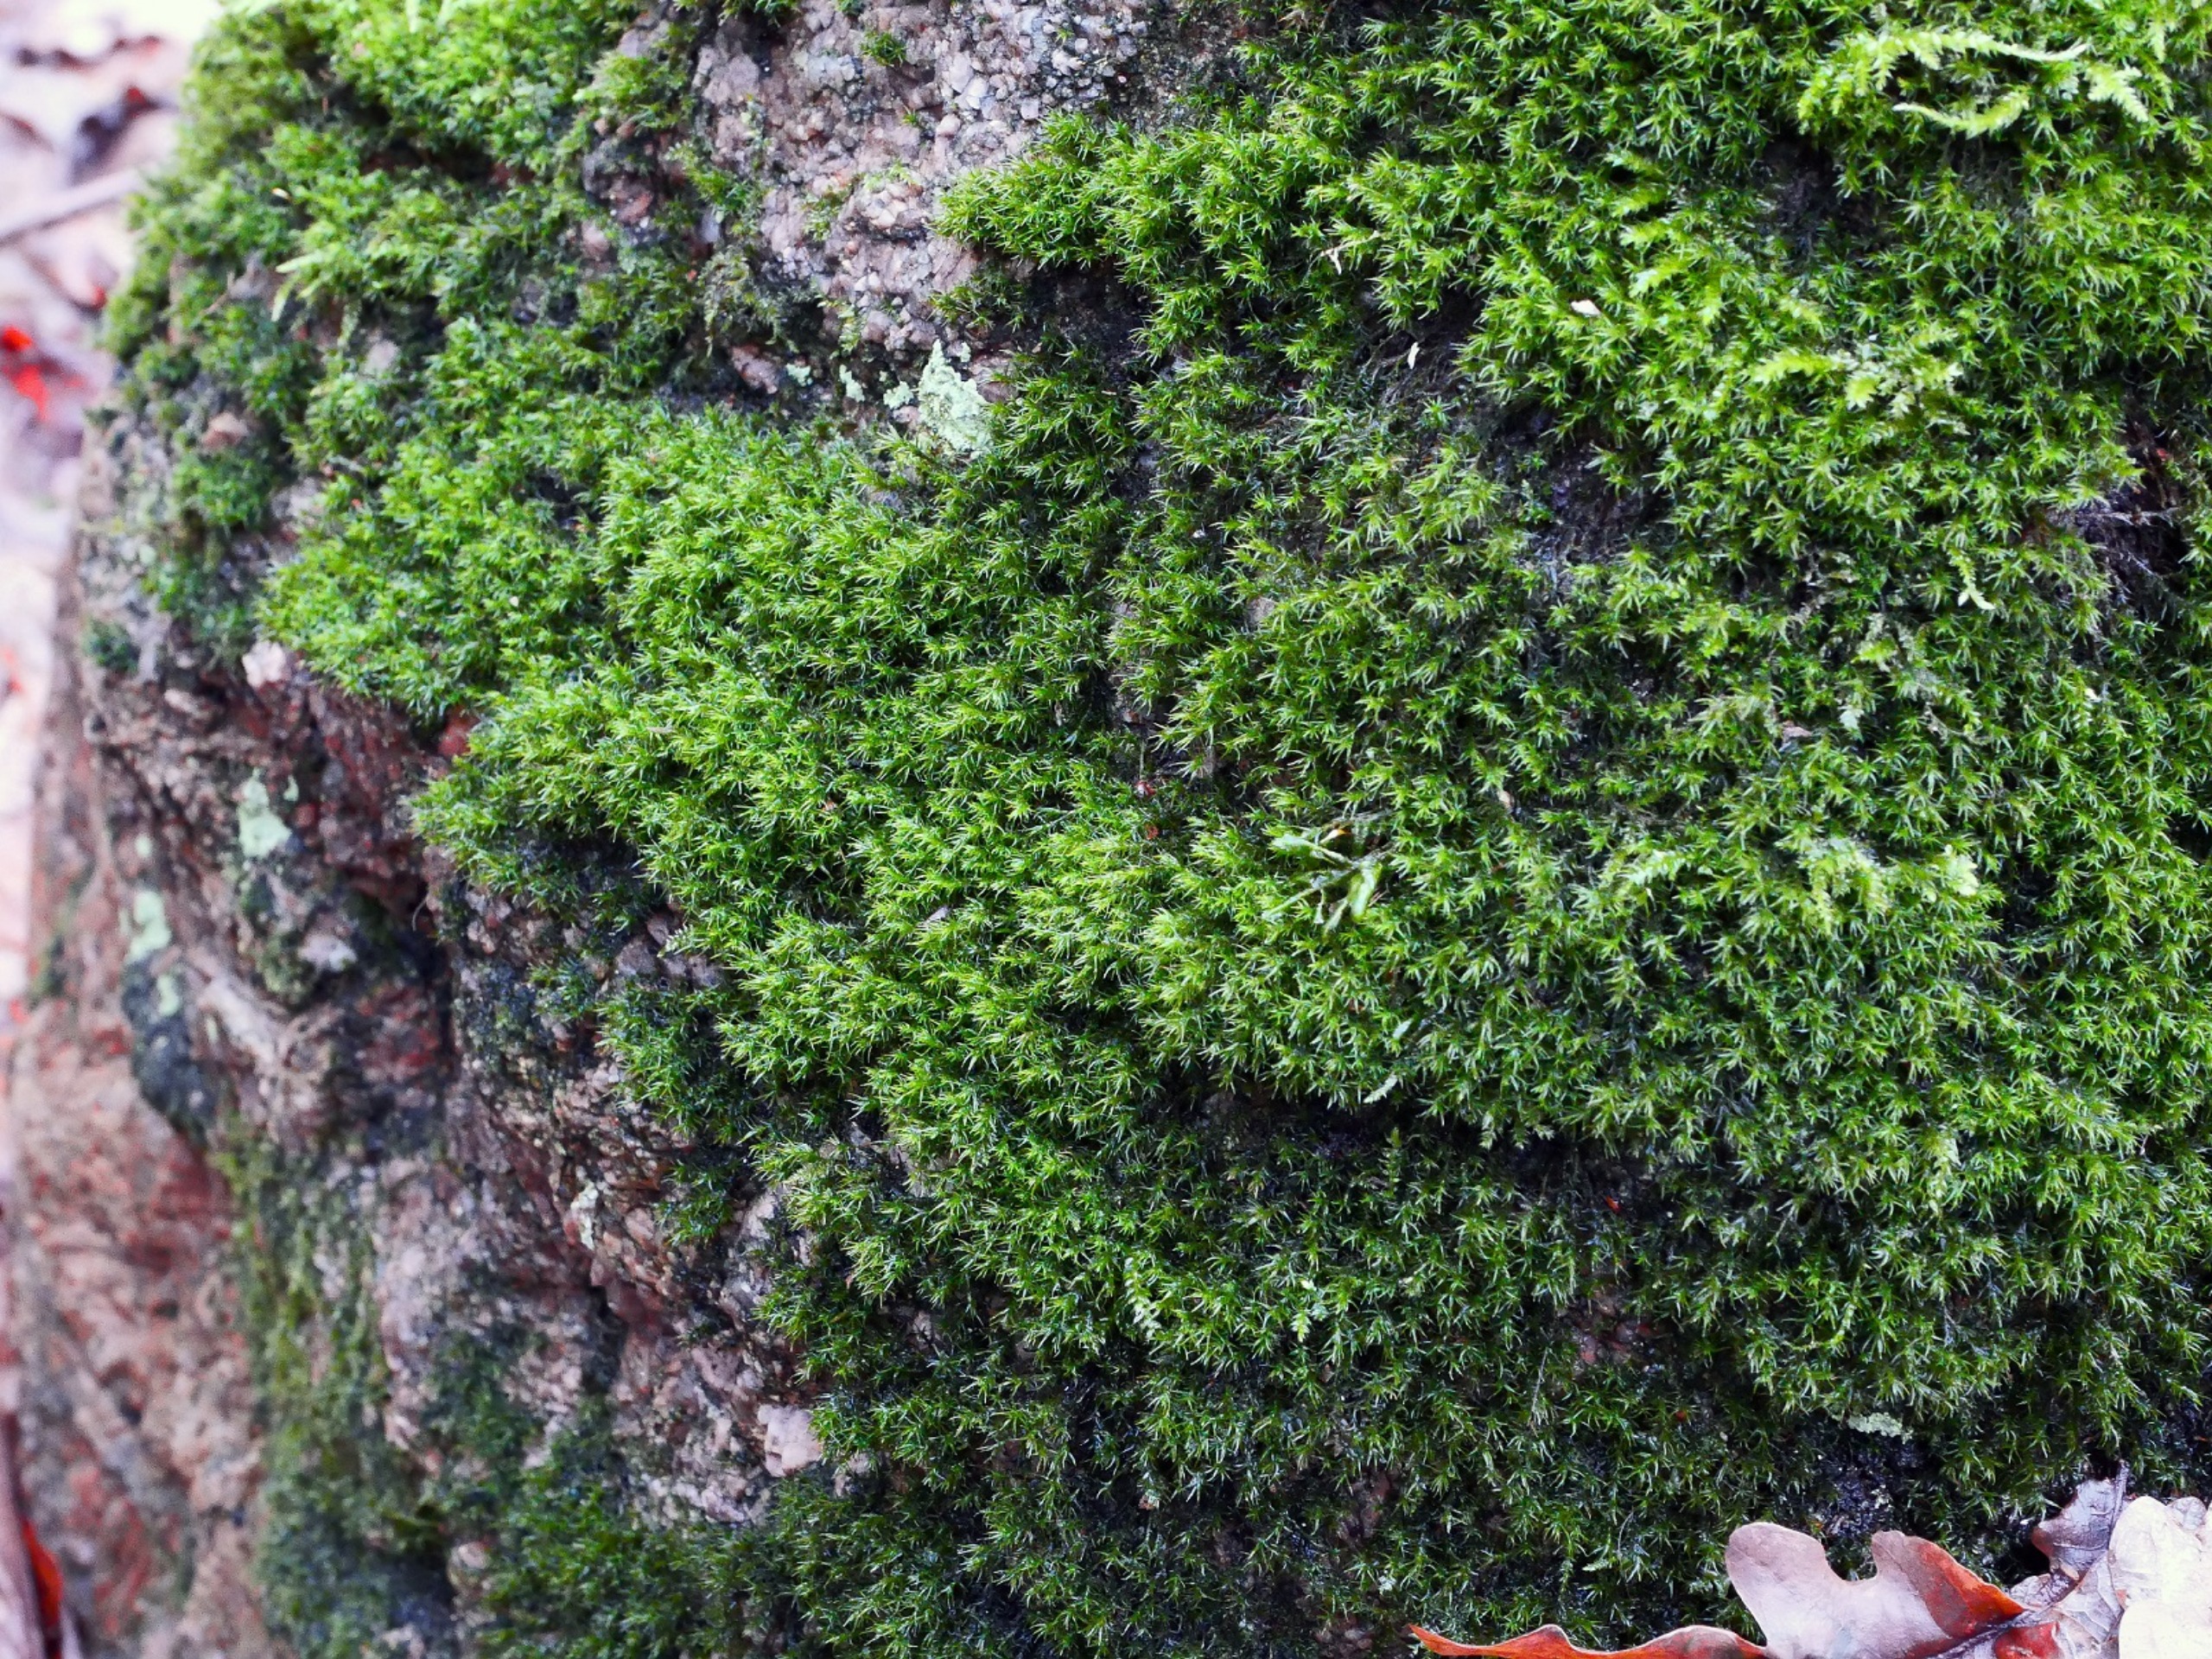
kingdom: Plantae
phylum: Bryophyta
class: Bryopsida
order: Grimmiales
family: Grimmiaceae
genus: Grimmia
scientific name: Grimmia hartmanii
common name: Hartmans gråmos
